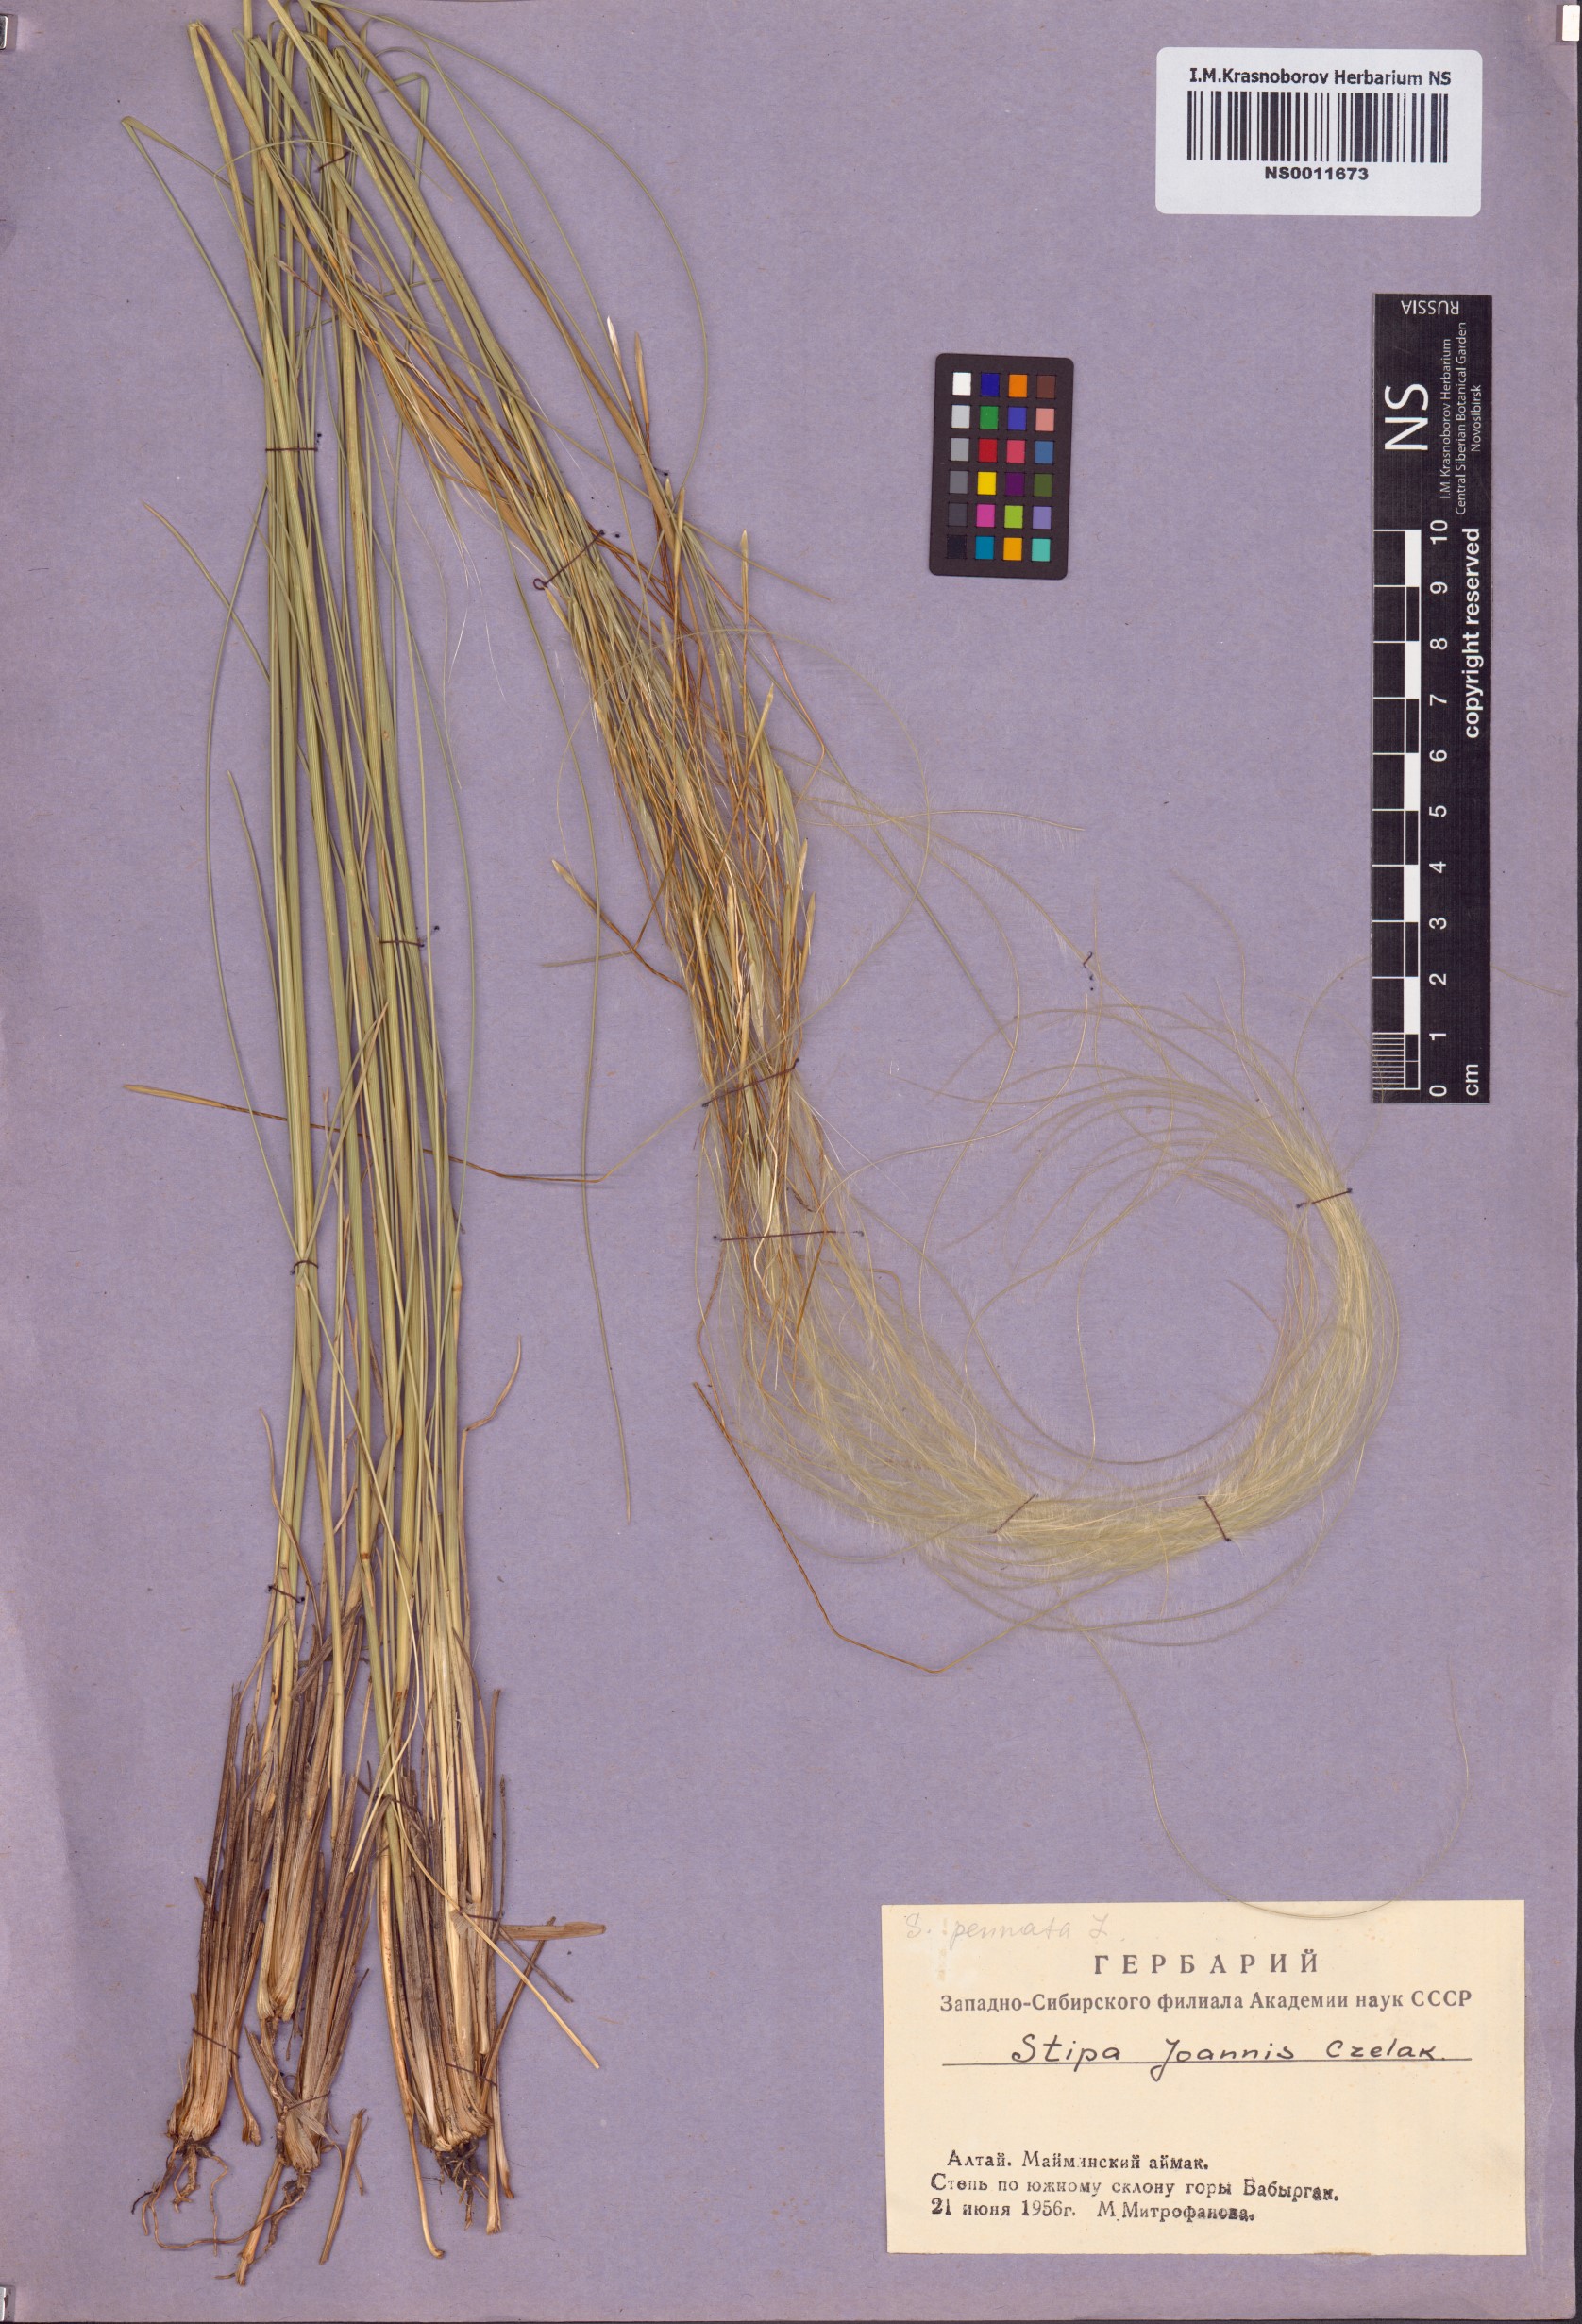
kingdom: Plantae
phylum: Tracheophyta
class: Liliopsida
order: Poales
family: Poaceae
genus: Stipa
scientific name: Stipa pennata
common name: European feather grass
